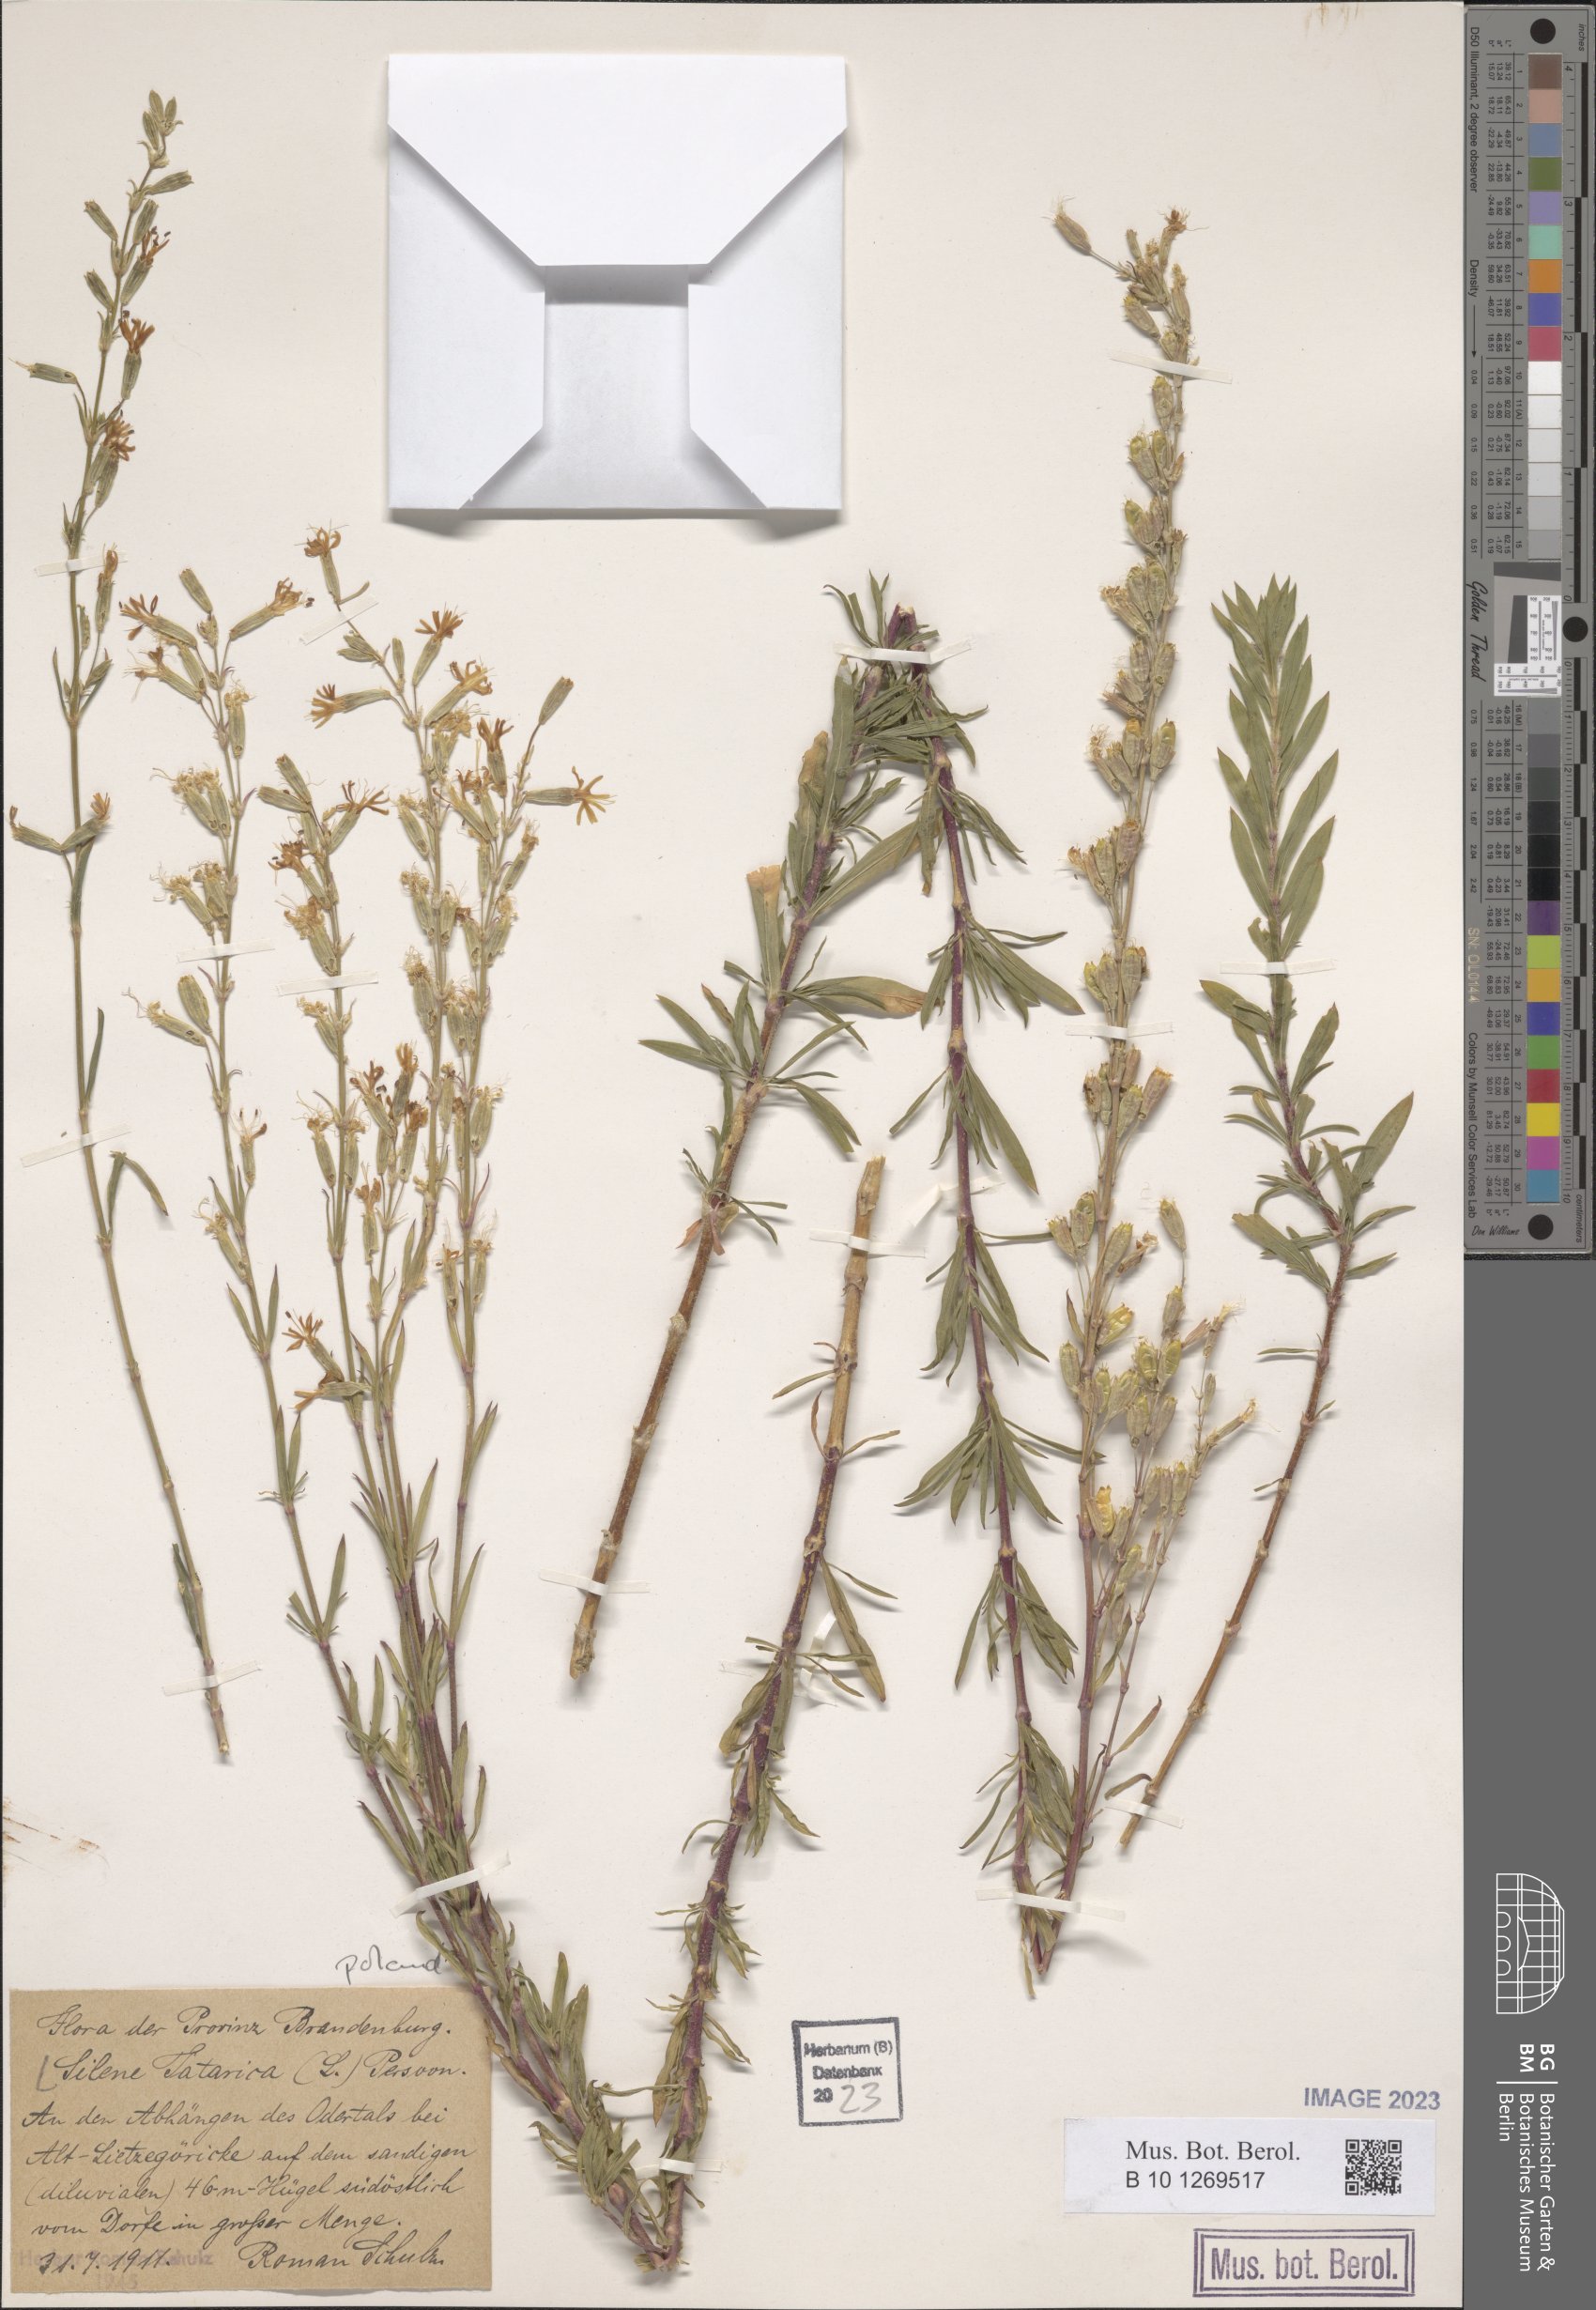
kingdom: Plantae
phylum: Tracheophyta
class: Magnoliopsida
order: Caryophyllales
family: Caryophyllaceae
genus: Silene
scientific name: Silene tatarica
